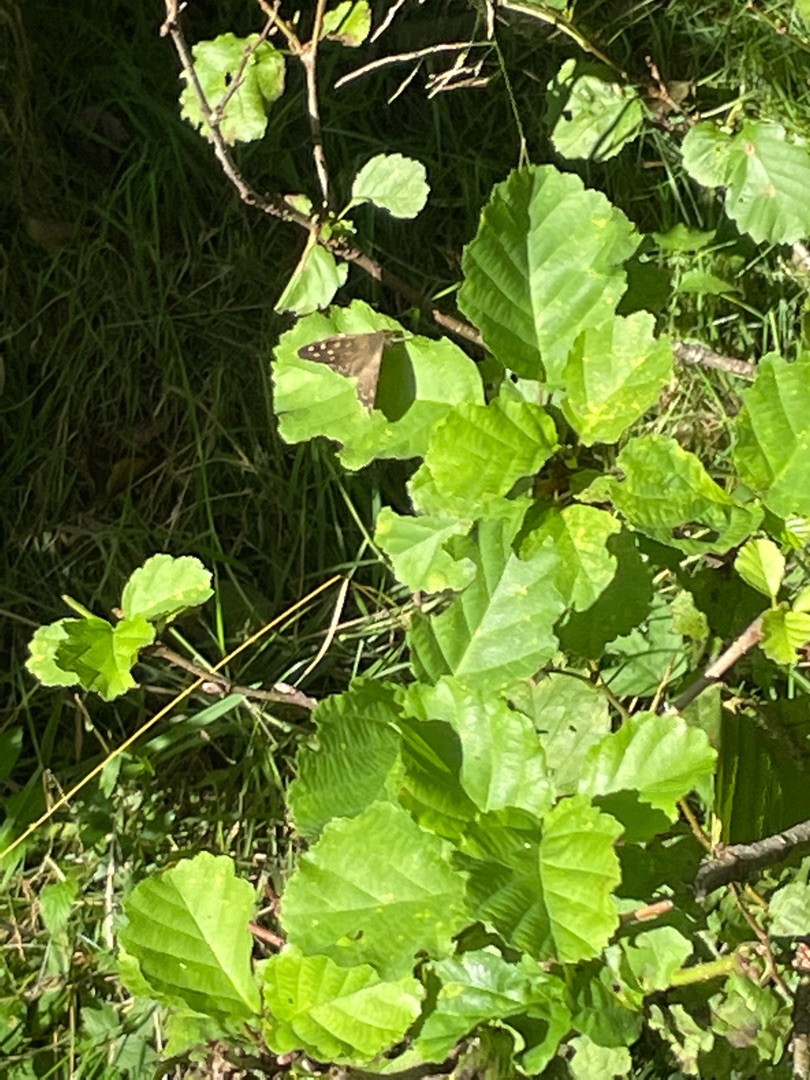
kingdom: Animalia
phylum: Arthropoda
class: Insecta
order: Lepidoptera
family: Nymphalidae
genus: Pararge
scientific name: Pararge aegeria
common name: Skovrandøje
